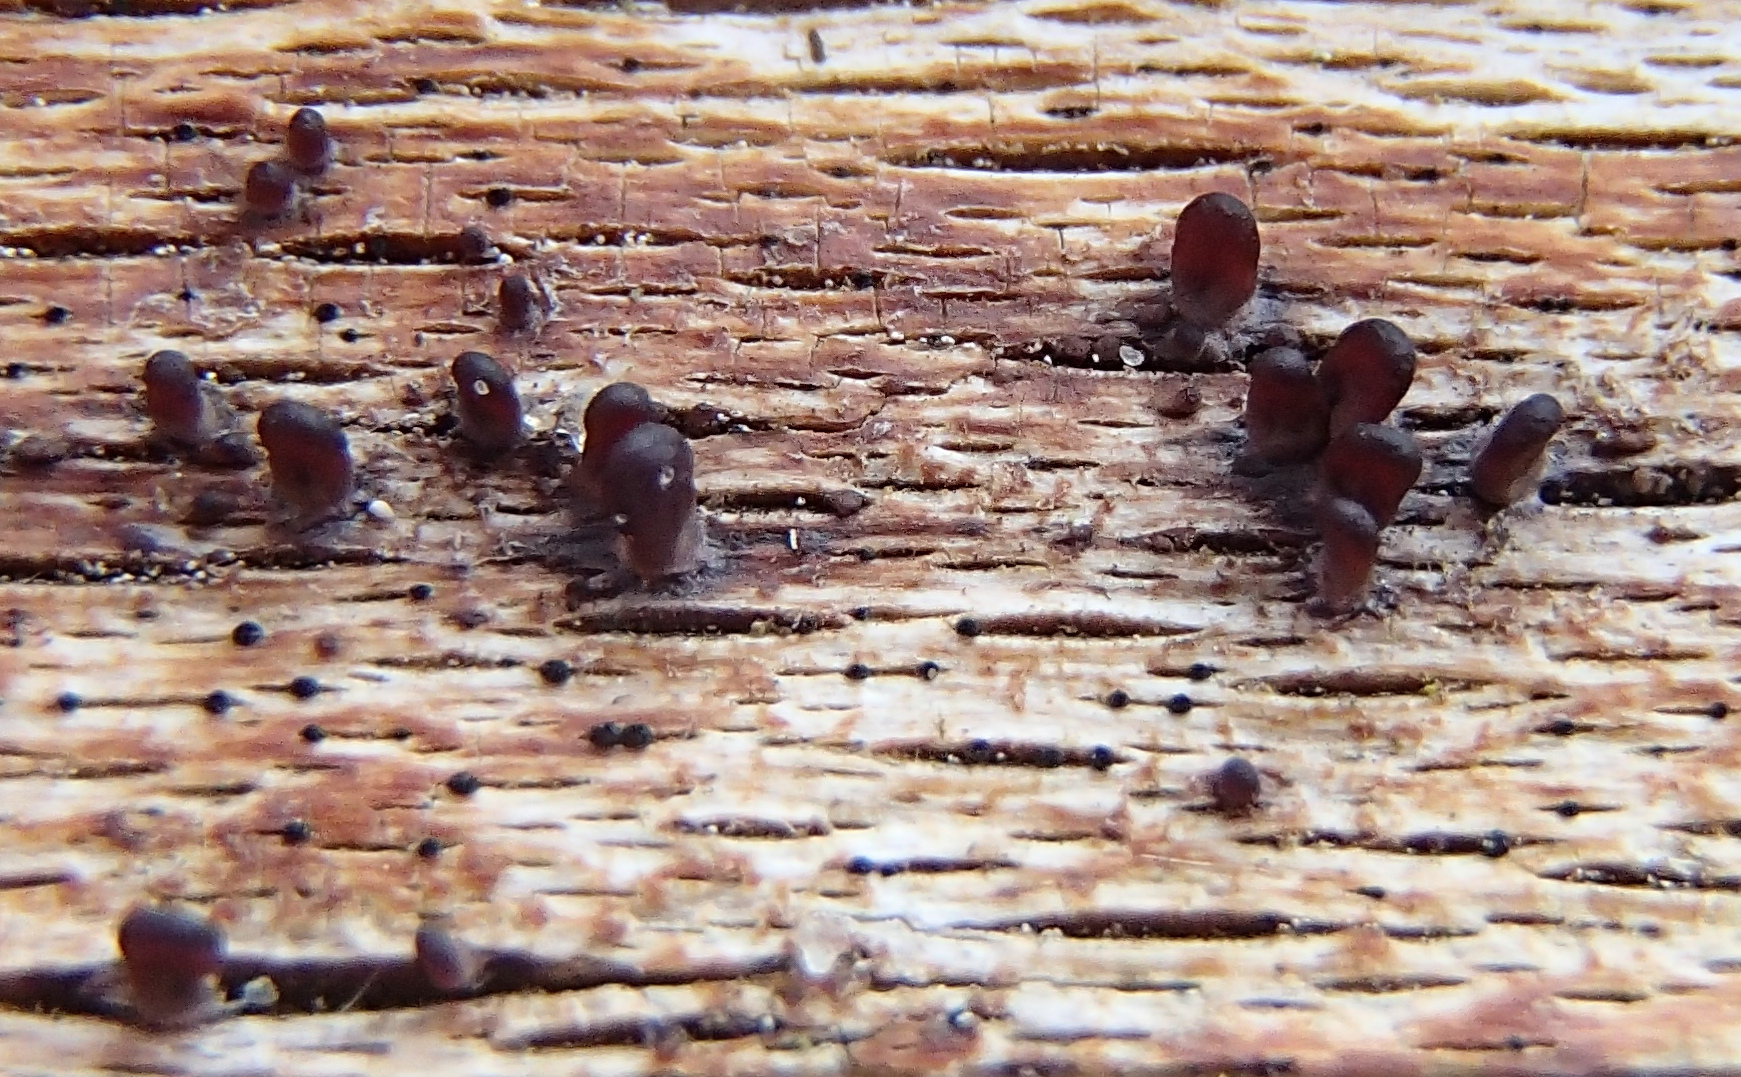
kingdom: Fungi
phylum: Ascomycota
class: Leotiomycetes
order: Helotiales
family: Gelatinodiscaceae
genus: Ascocoryne
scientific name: Ascocoryne
